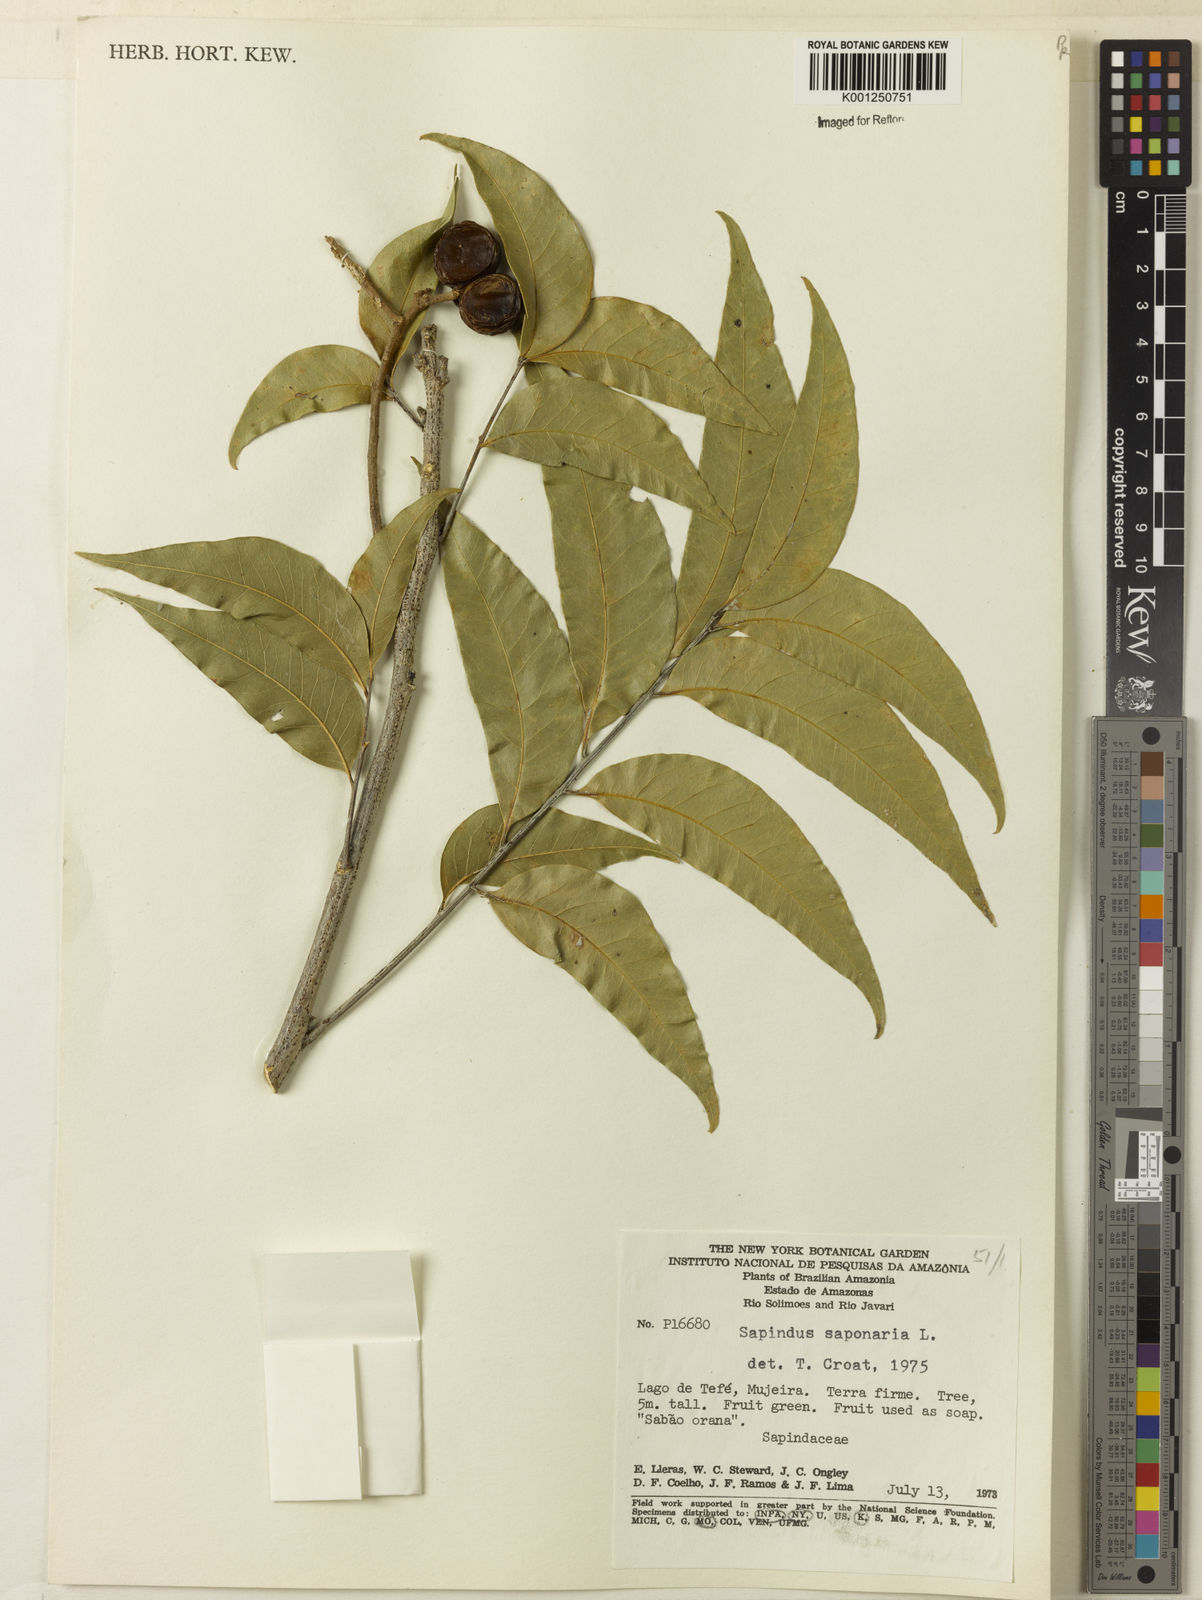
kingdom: Plantae
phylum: Tracheophyta
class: Magnoliopsida
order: Sapindales
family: Sapindaceae
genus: Sapindus
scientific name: Sapindus
